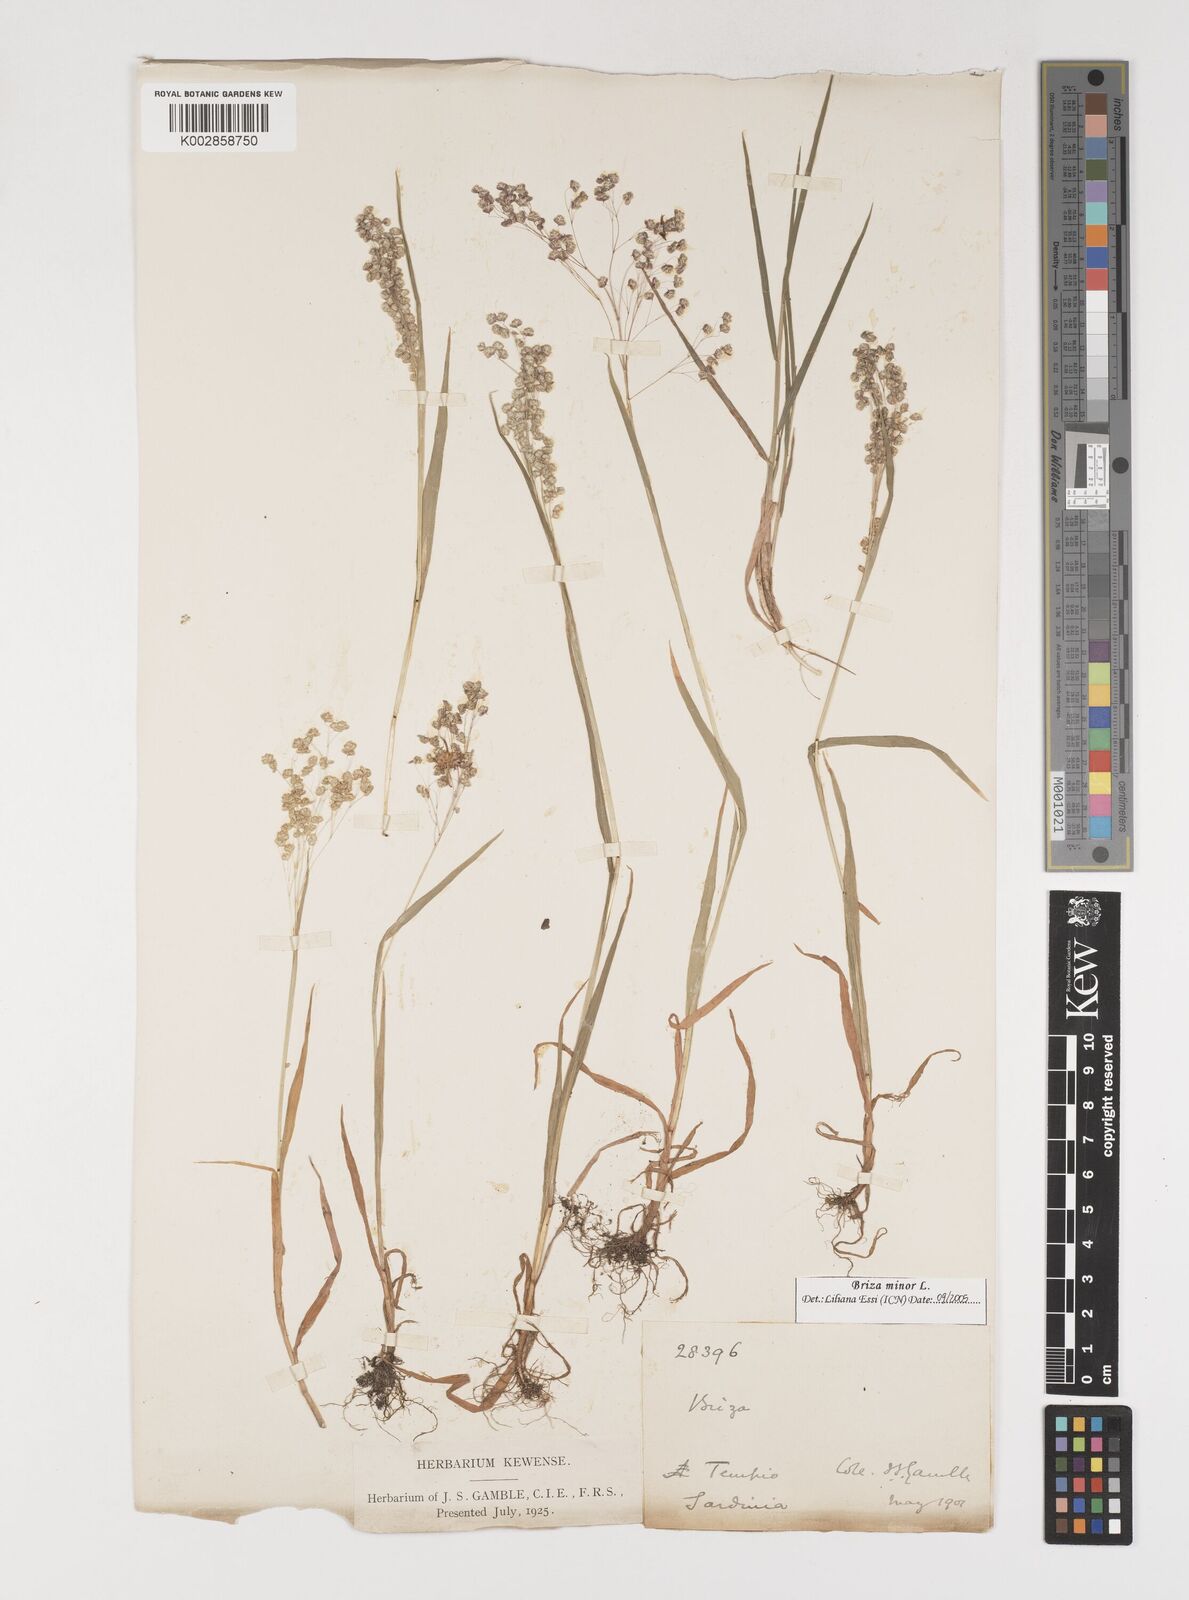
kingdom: Plantae
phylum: Tracheophyta
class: Liliopsida
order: Poales
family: Poaceae
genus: Briza
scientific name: Briza minor
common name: Lesser quaking-grass
